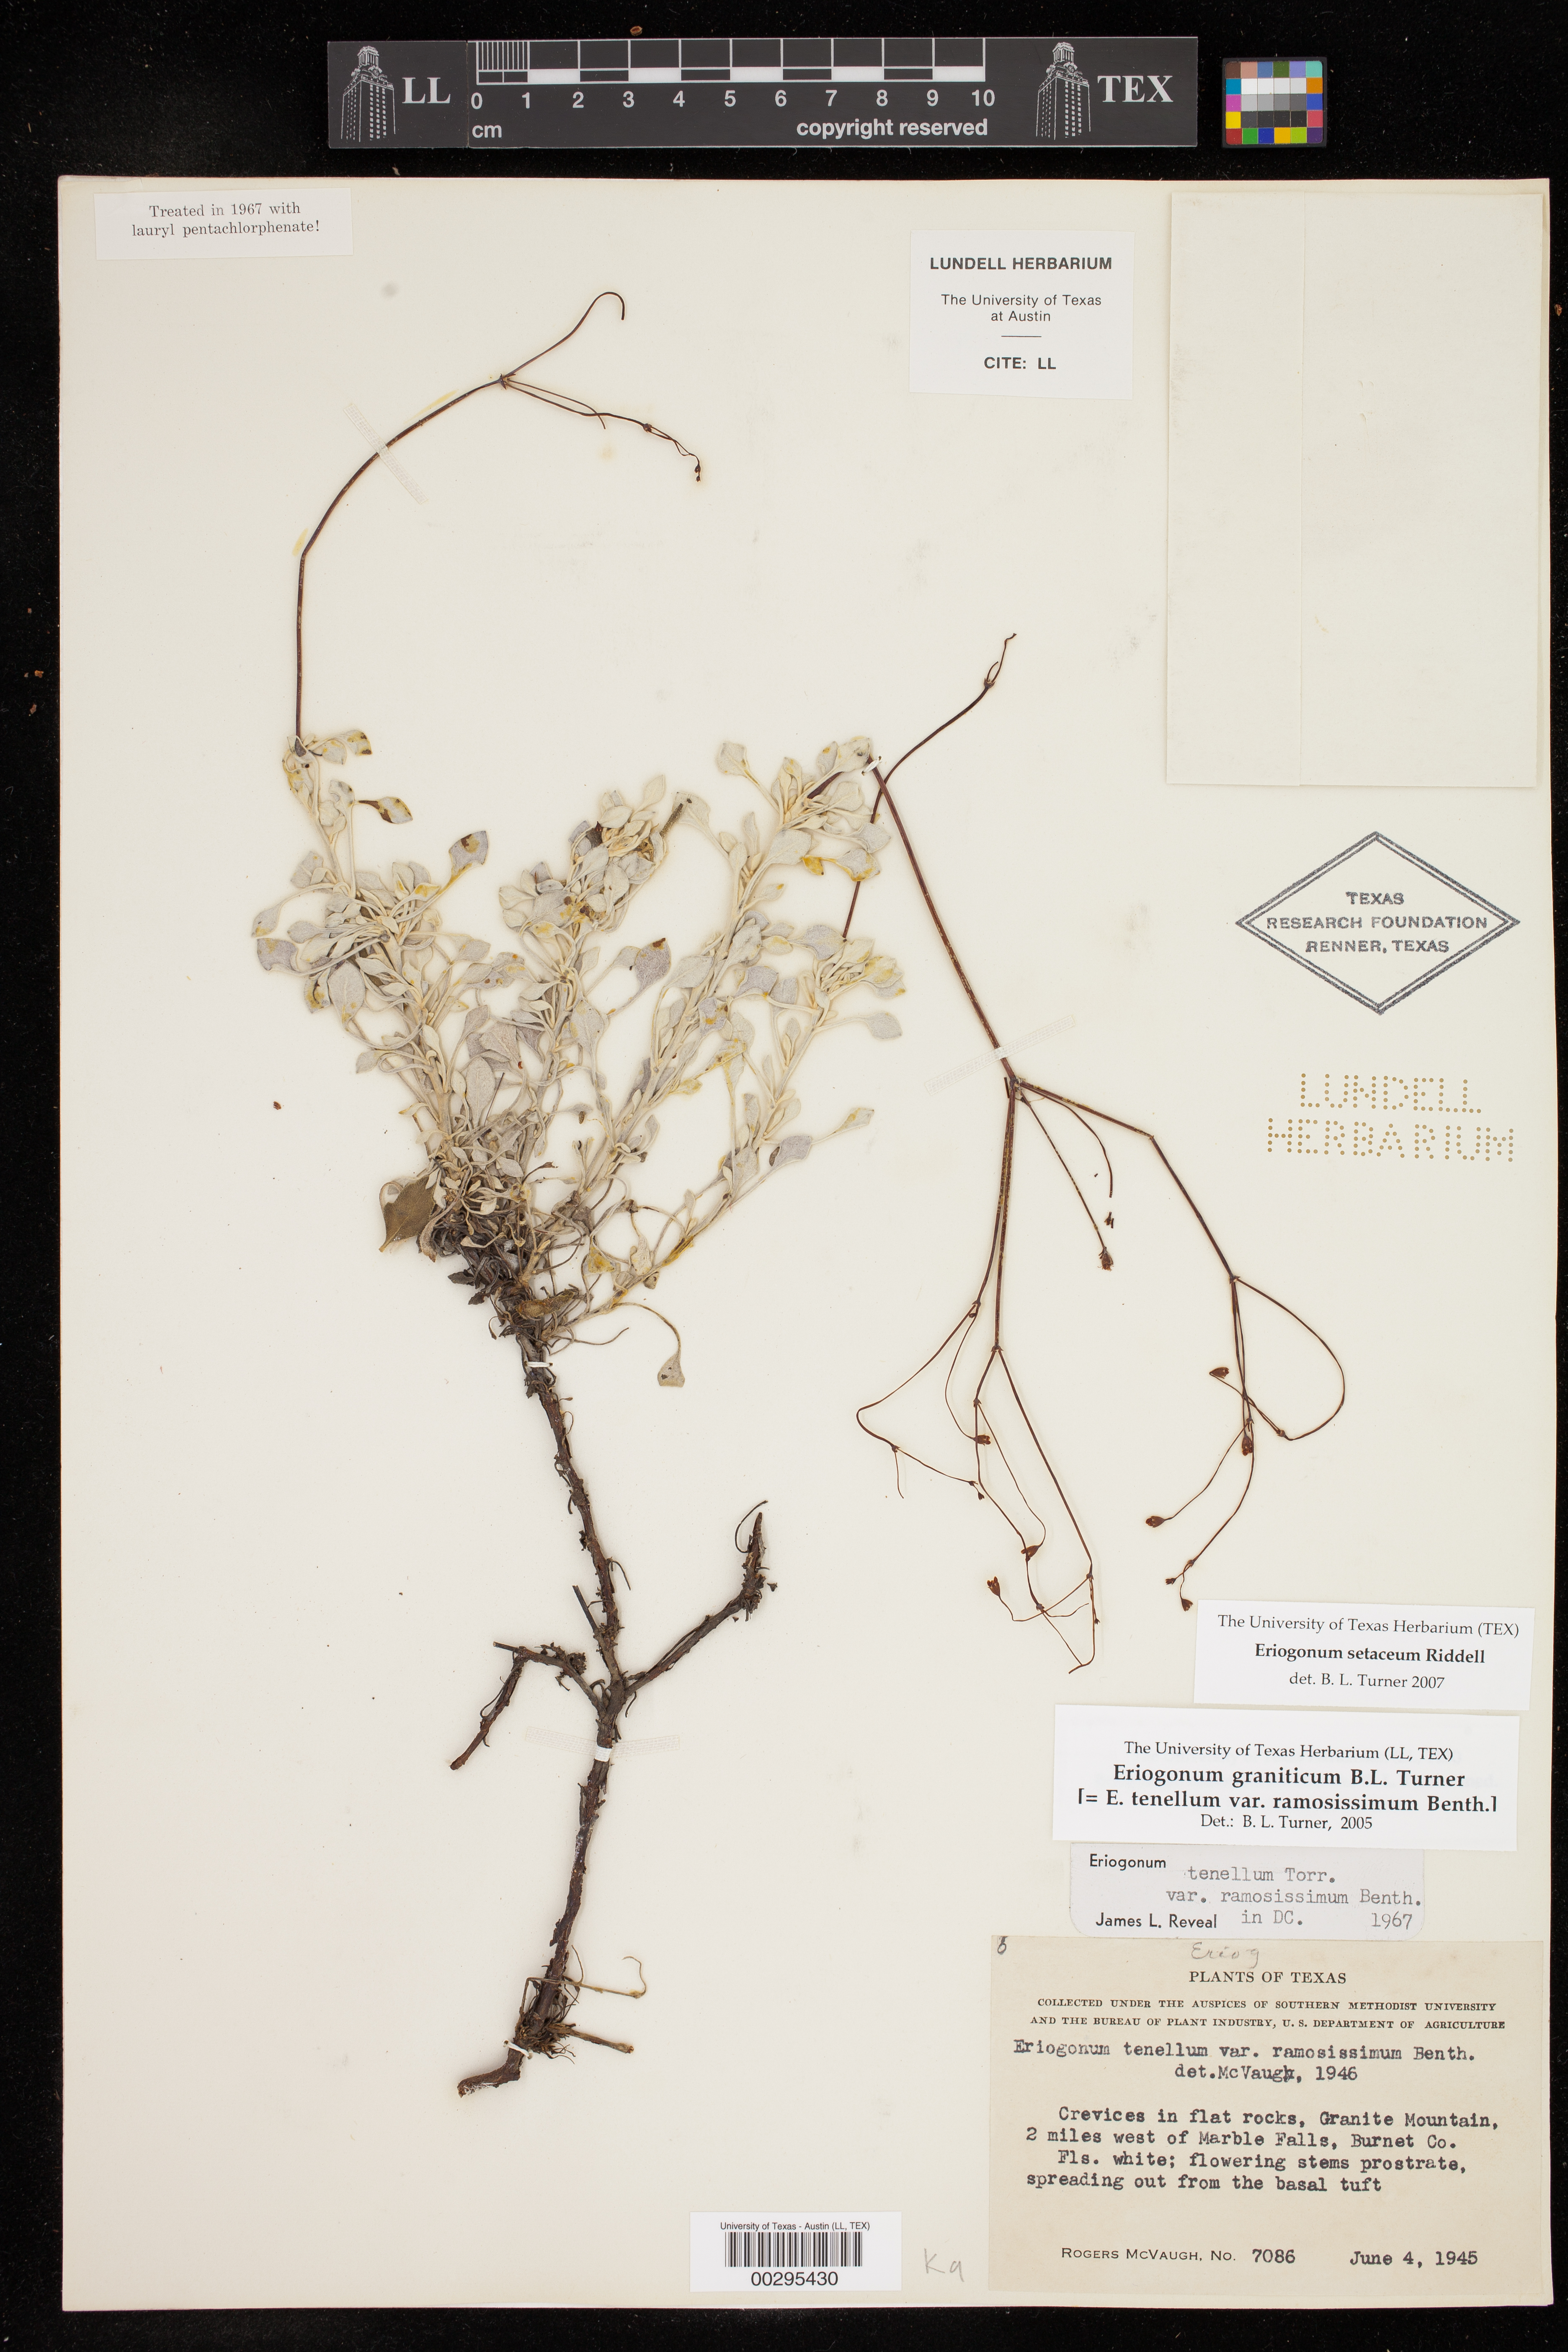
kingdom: Plantae
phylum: Tracheophyta
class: Magnoliopsida
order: Caryophyllales
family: Polygonaceae
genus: Eriogonum
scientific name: Eriogonum setaceum
